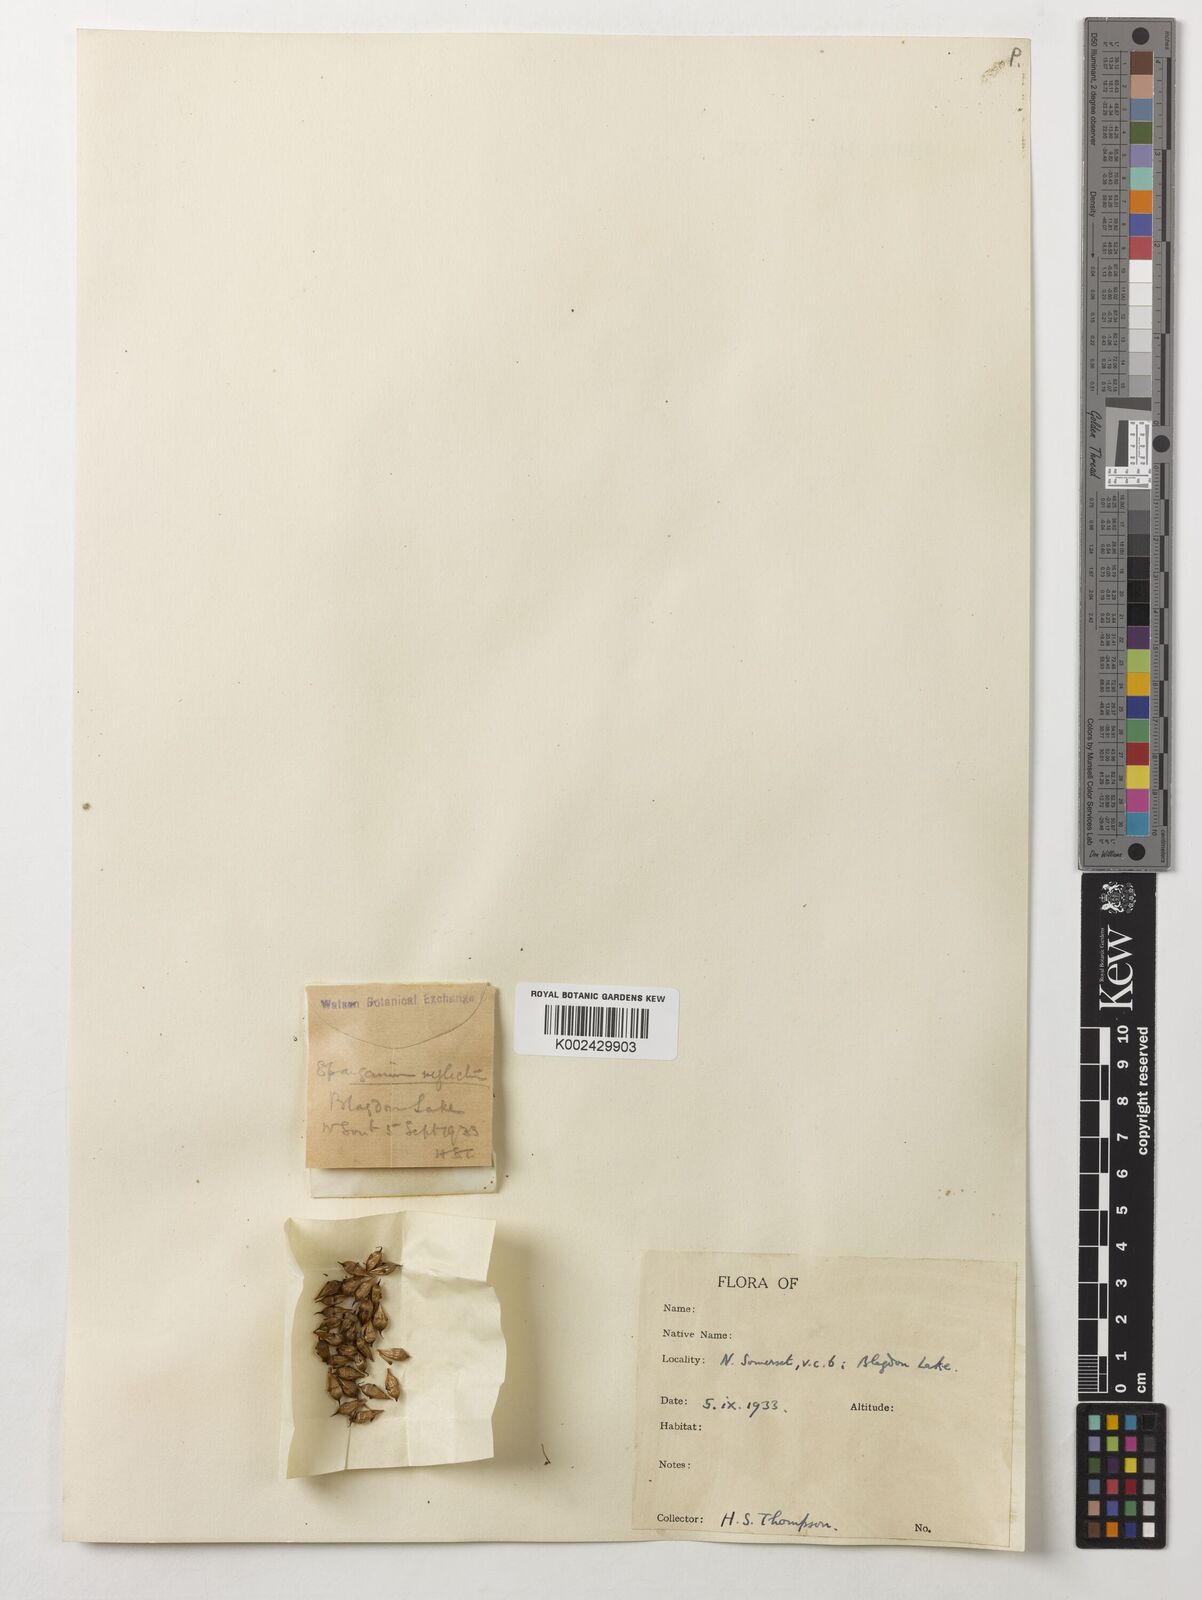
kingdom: Plantae
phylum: Tracheophyta
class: Liliopsida
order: Poales
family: Typhaceae
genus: Sparganium
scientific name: Sparganium erectum
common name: Branched bur-reed
